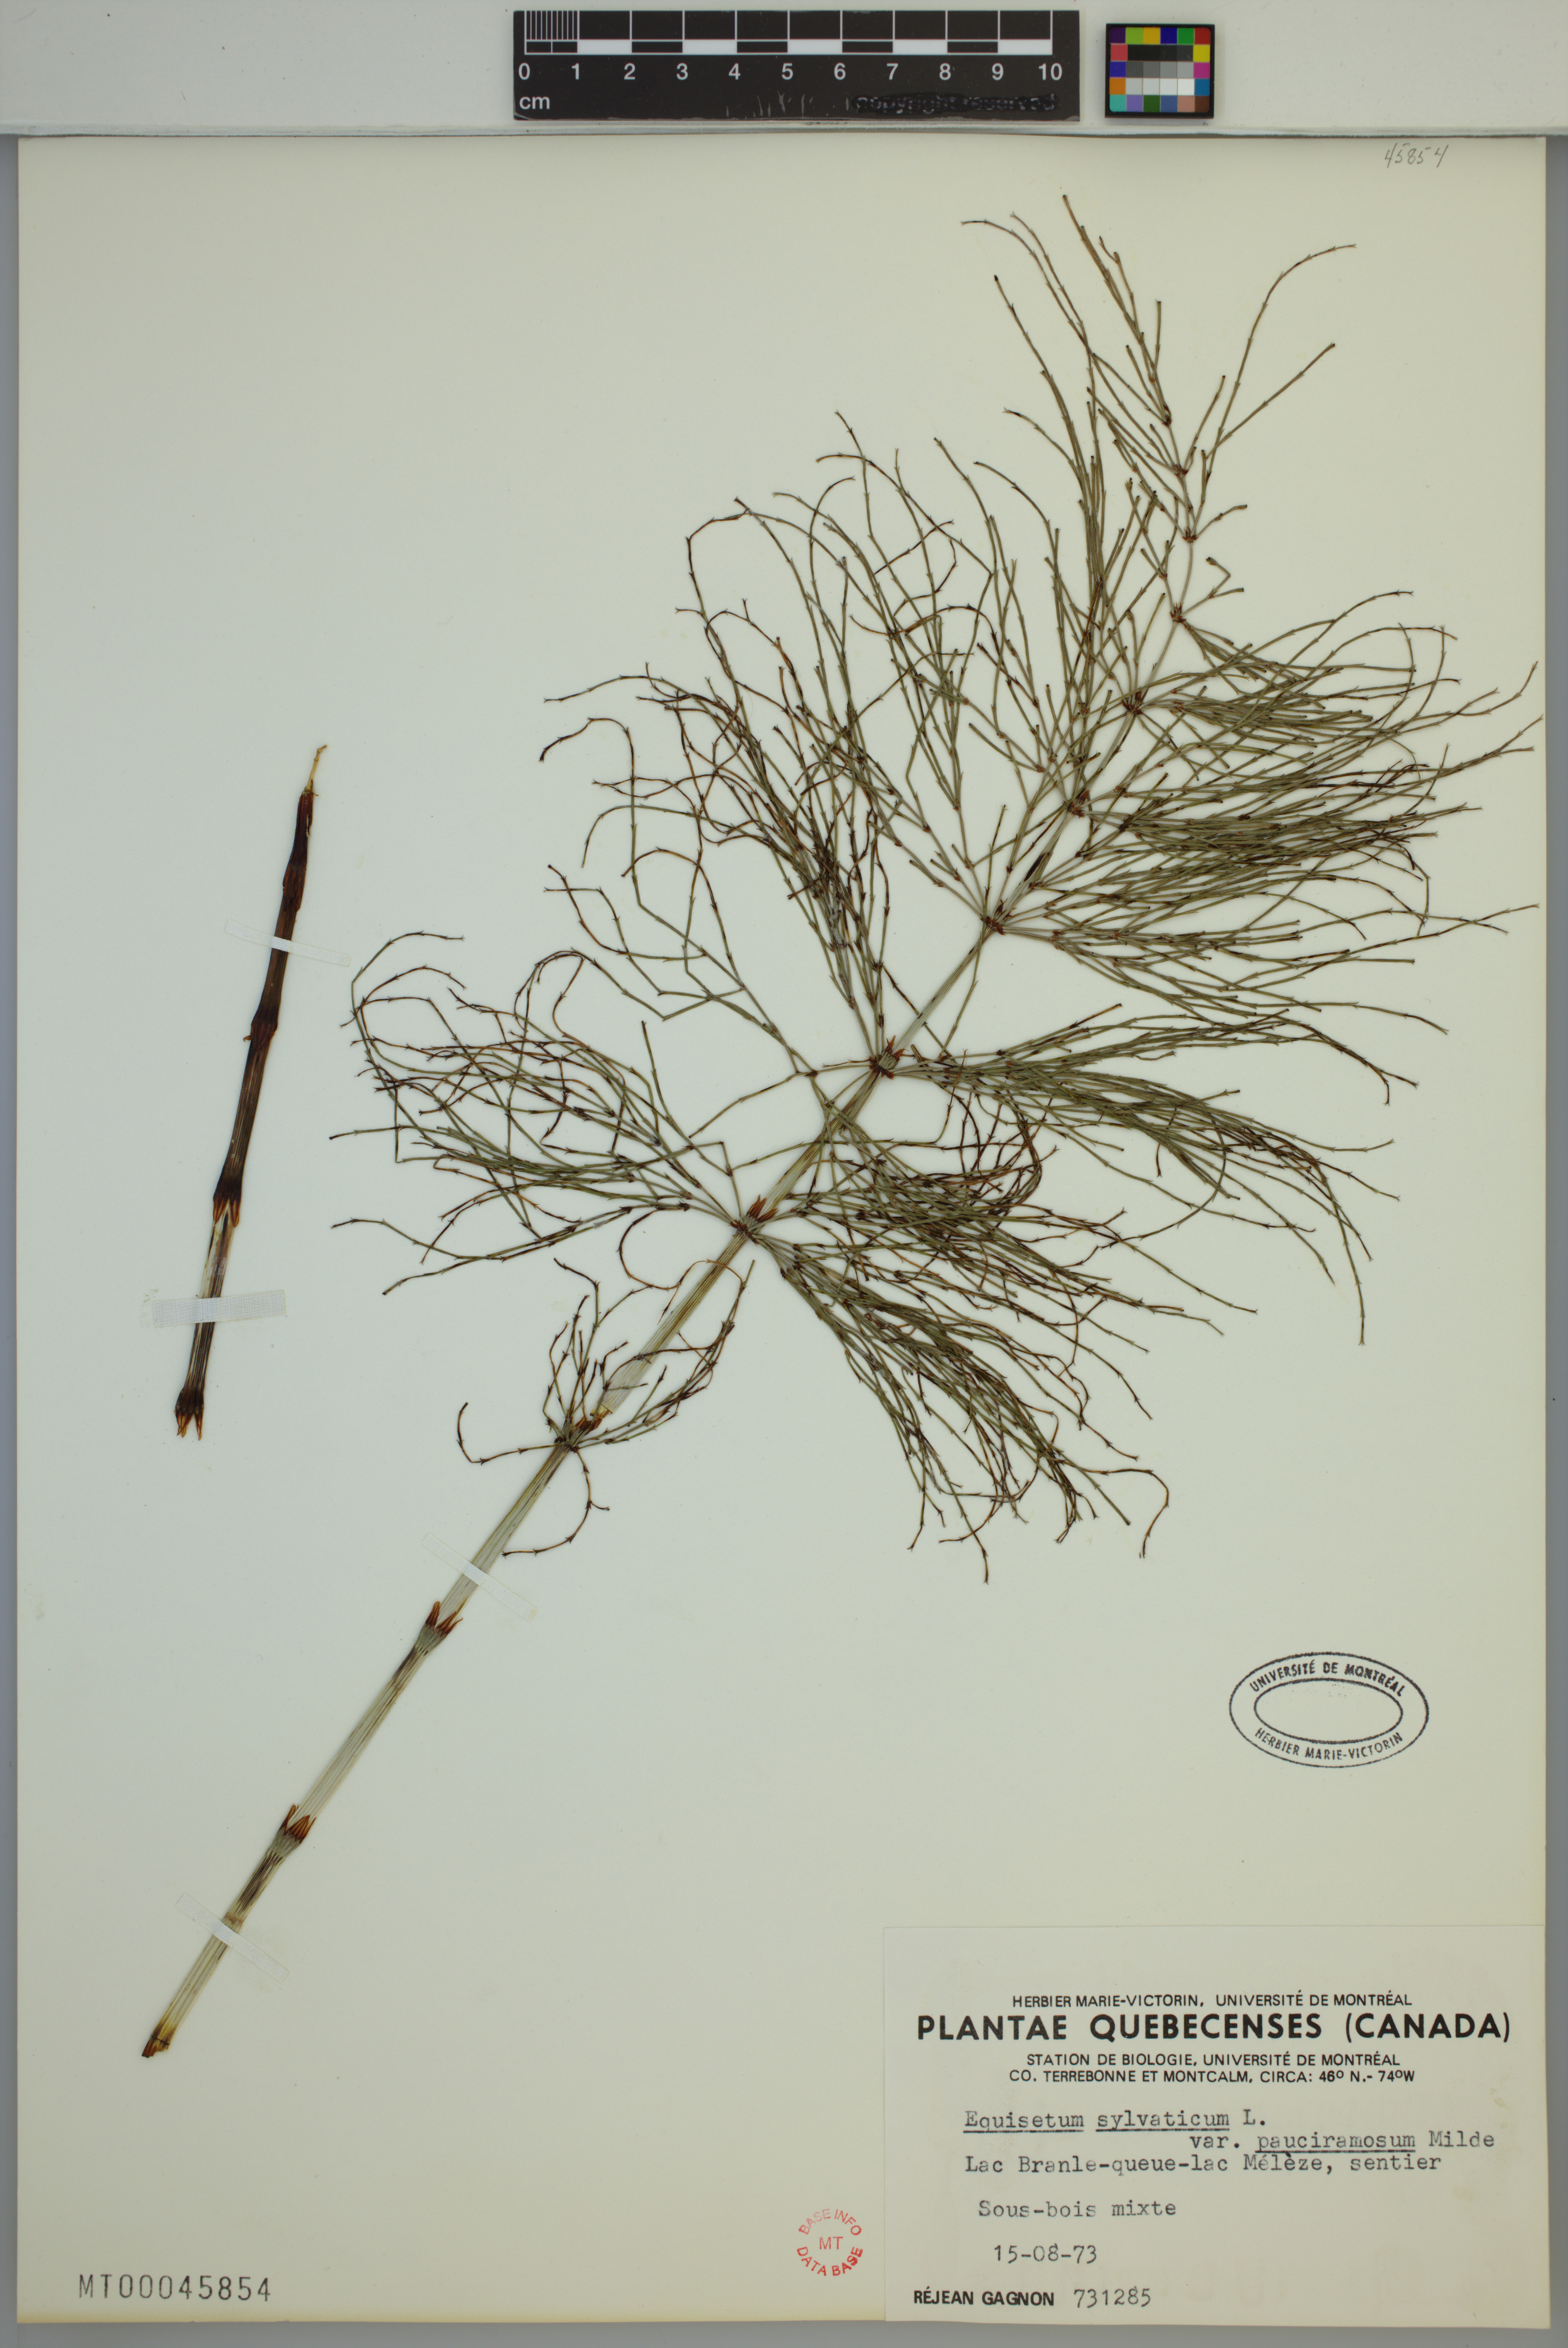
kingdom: Plantae
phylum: Tracheophyta
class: Polypodiopsida
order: Equisetales
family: Equisetaceae
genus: Equisetum
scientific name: Equisetum sylvaticum
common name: Wood horsetail
